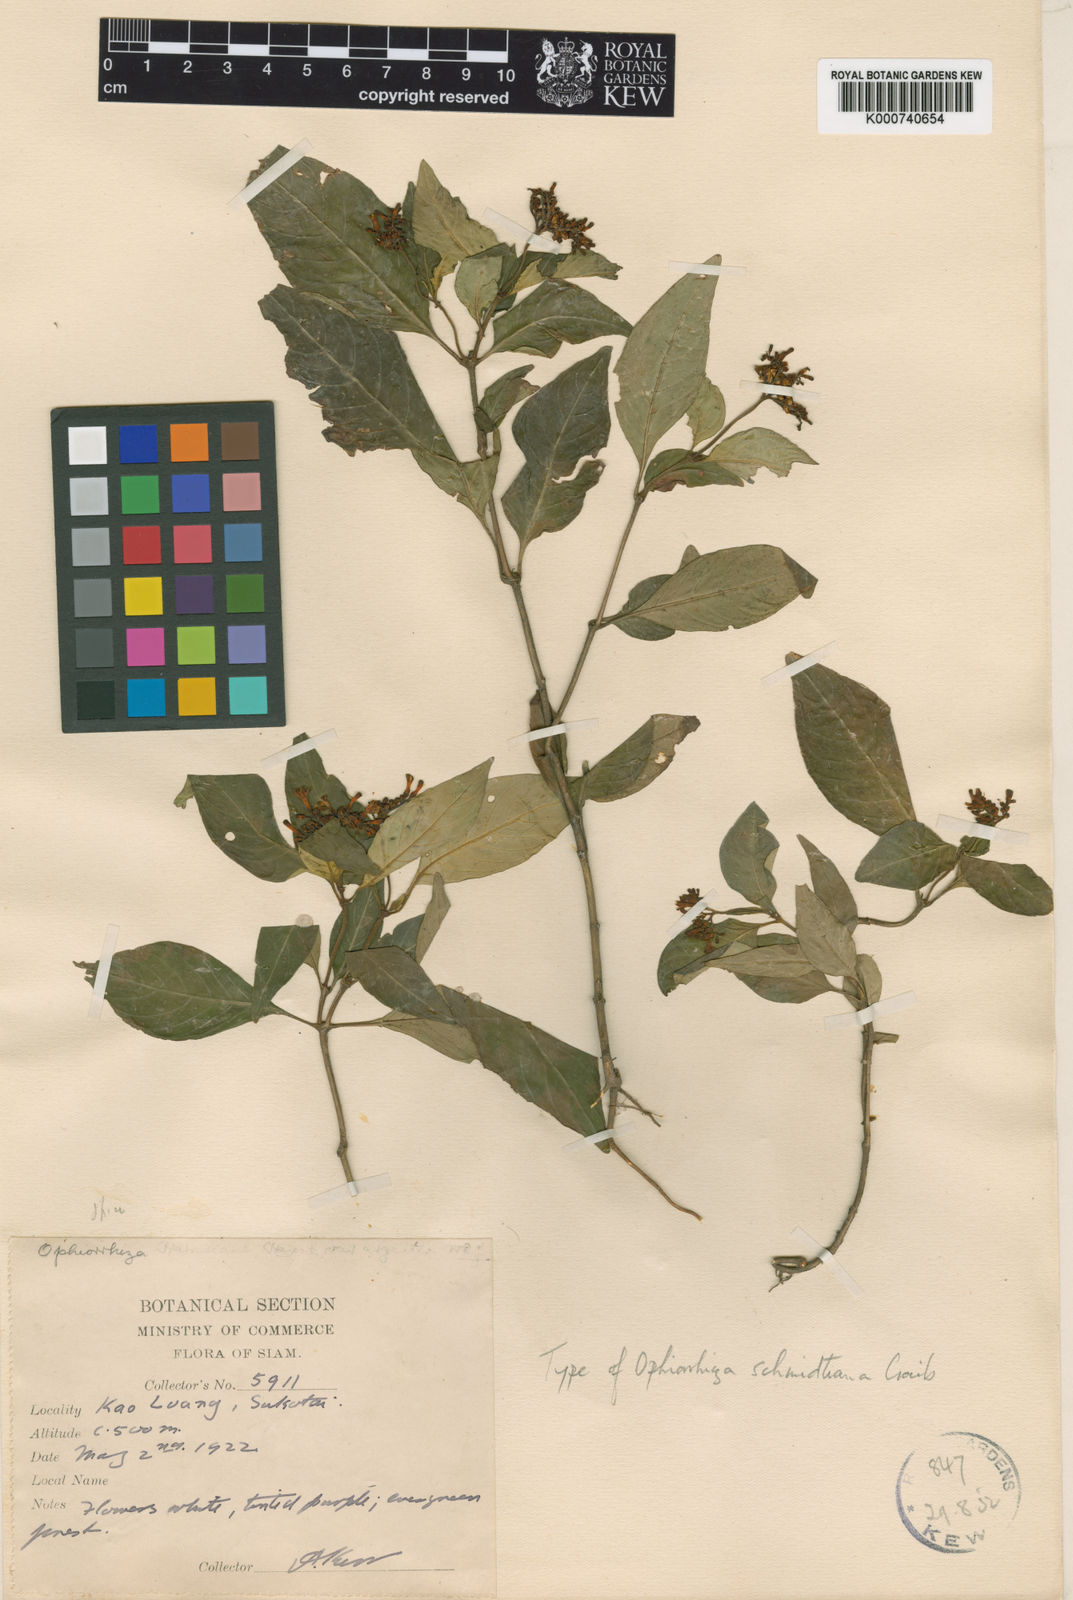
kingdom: Plantae
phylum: Tracheophyta
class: Magnoliopsida
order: Gentianales
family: Rubiaceae
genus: Ophiorrhiza
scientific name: Ophiorrhiza ridleyana
